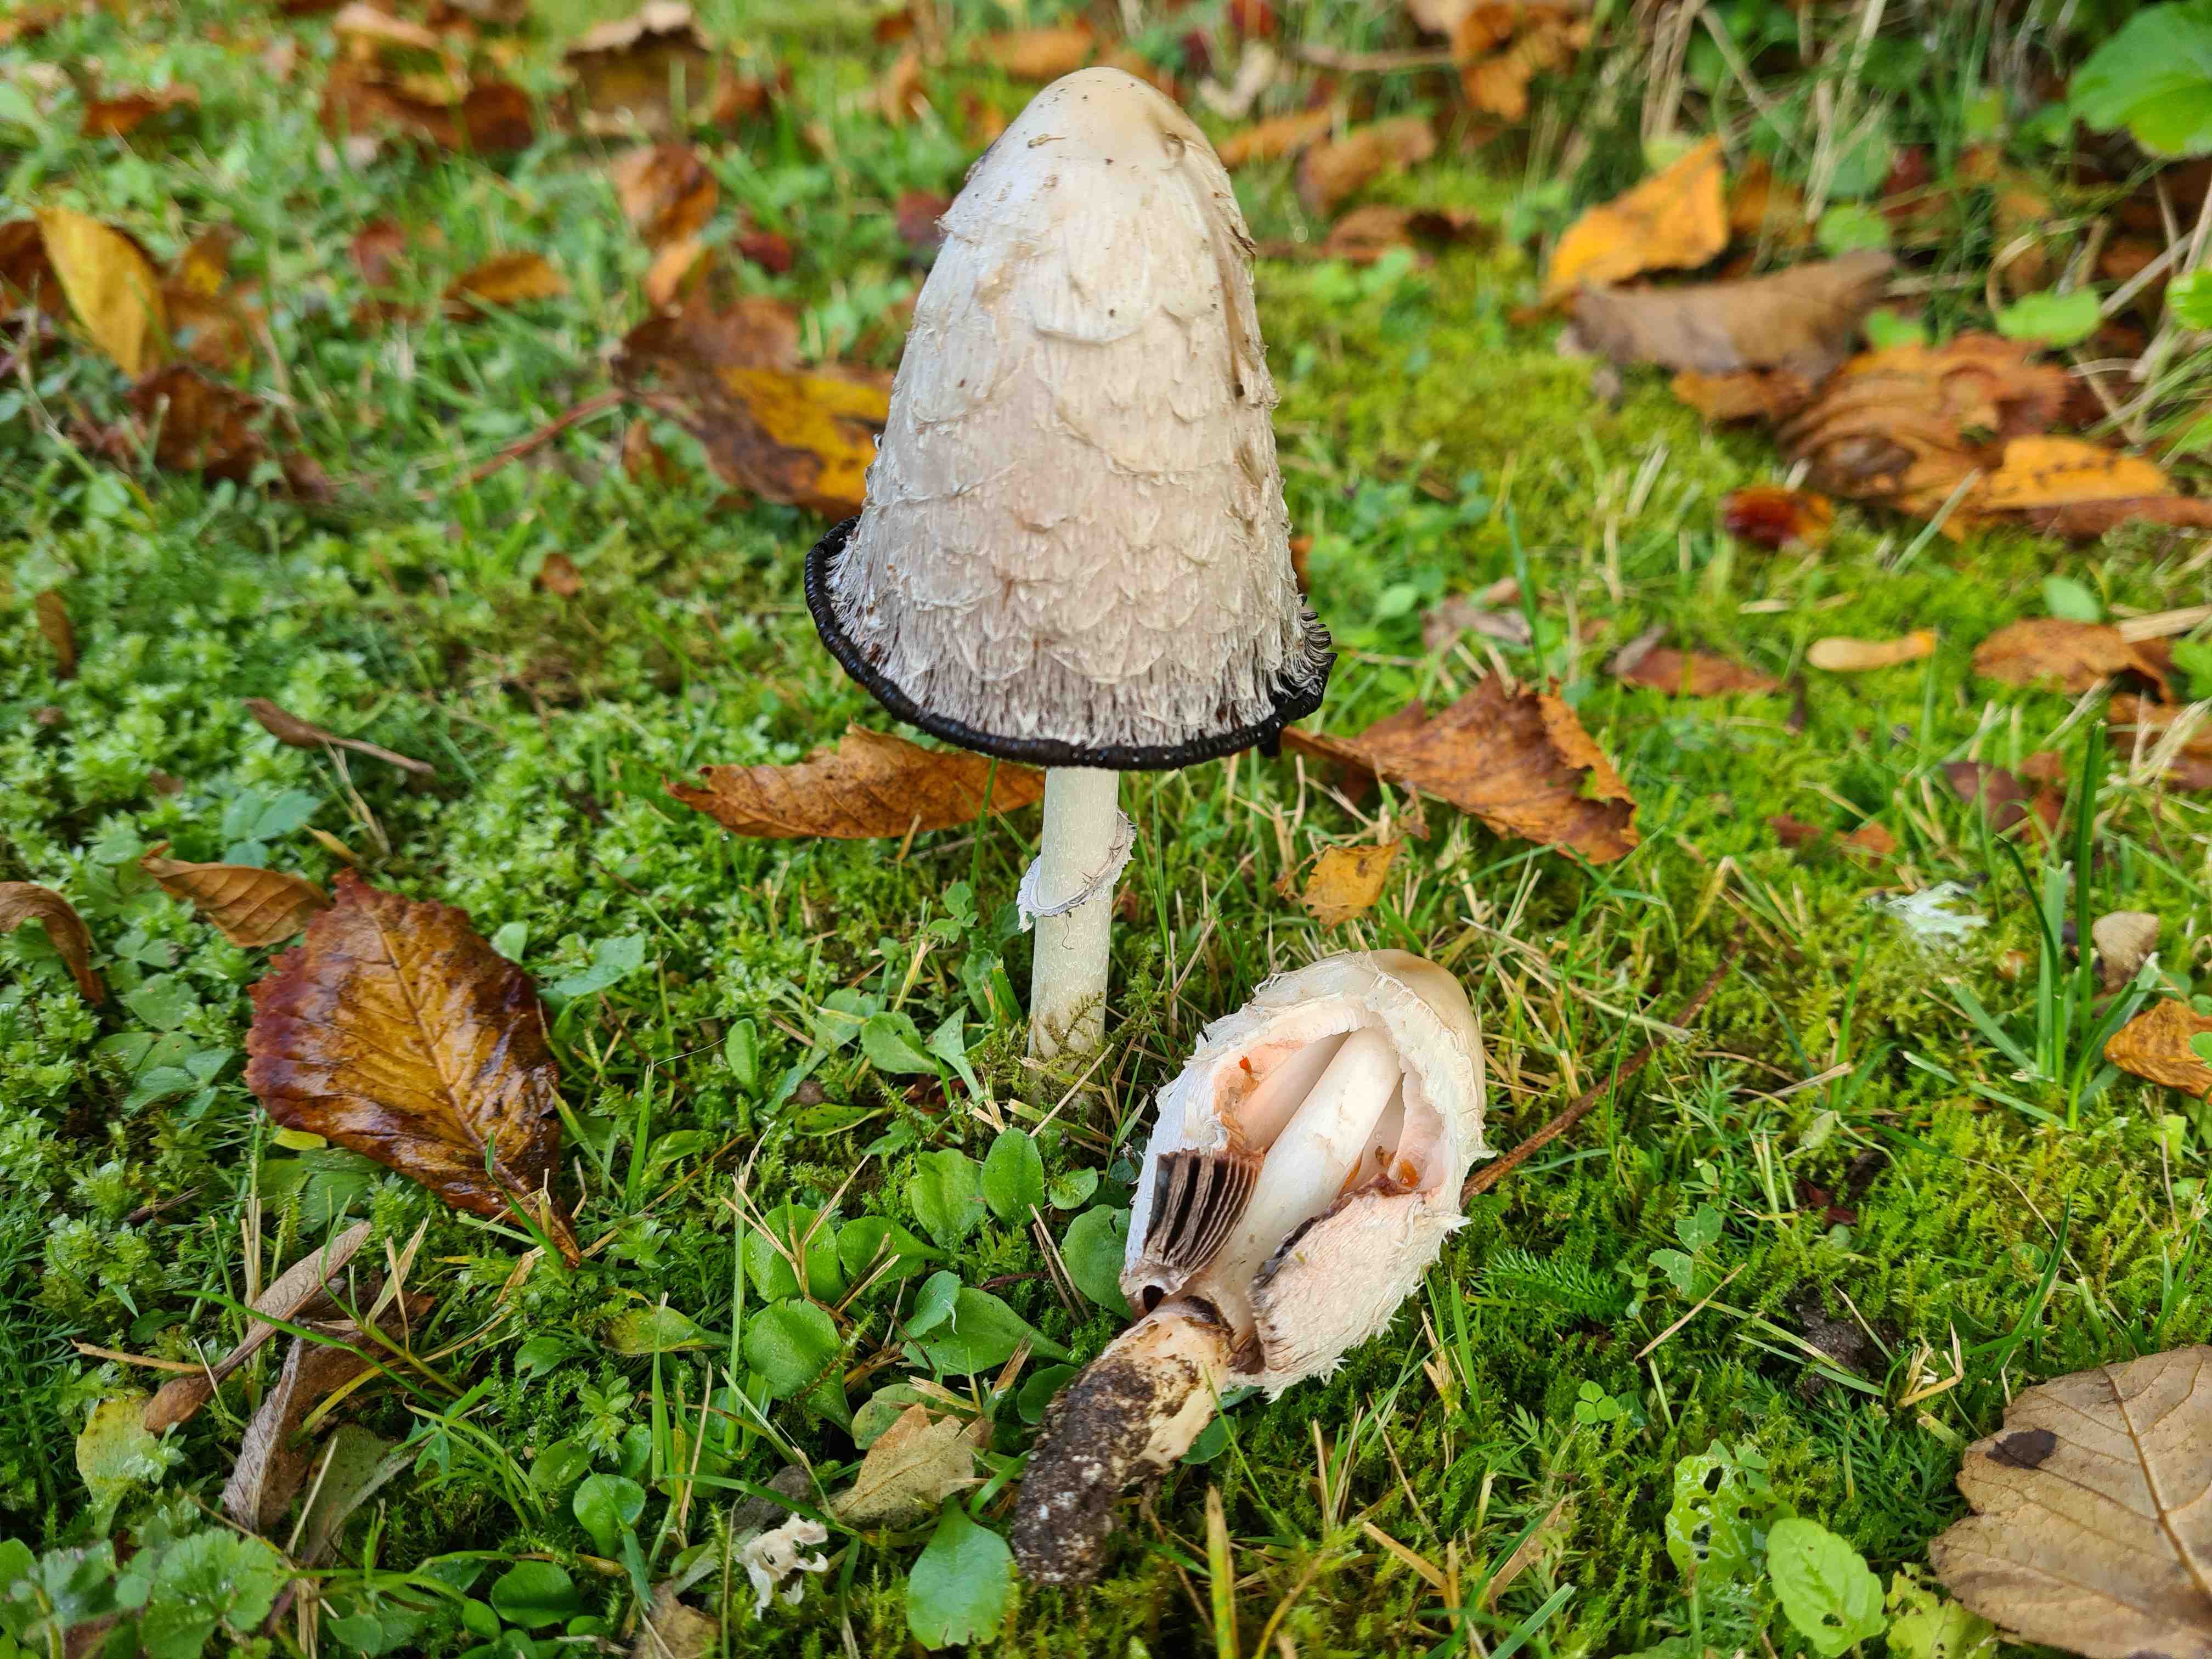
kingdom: Fungi
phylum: Basidiomycota
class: Agaricomycetes
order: Agaricales
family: Agaricaceae
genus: Coprinus
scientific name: Coprinus comatus
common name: stor parykhat
